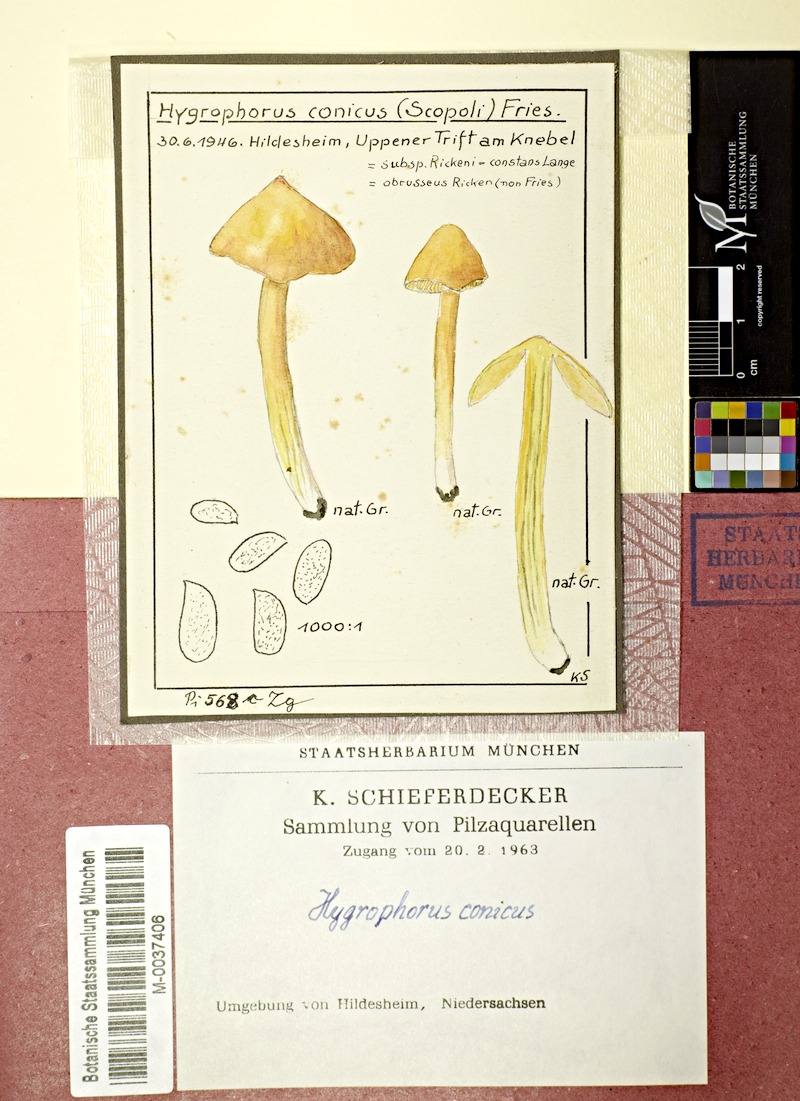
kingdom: Fungi
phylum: Basidiomycota
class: Agaricomycetes
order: Agaricales
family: Hygrophoraceae
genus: Hygrocybe
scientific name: Hygrocybe acutoconica
